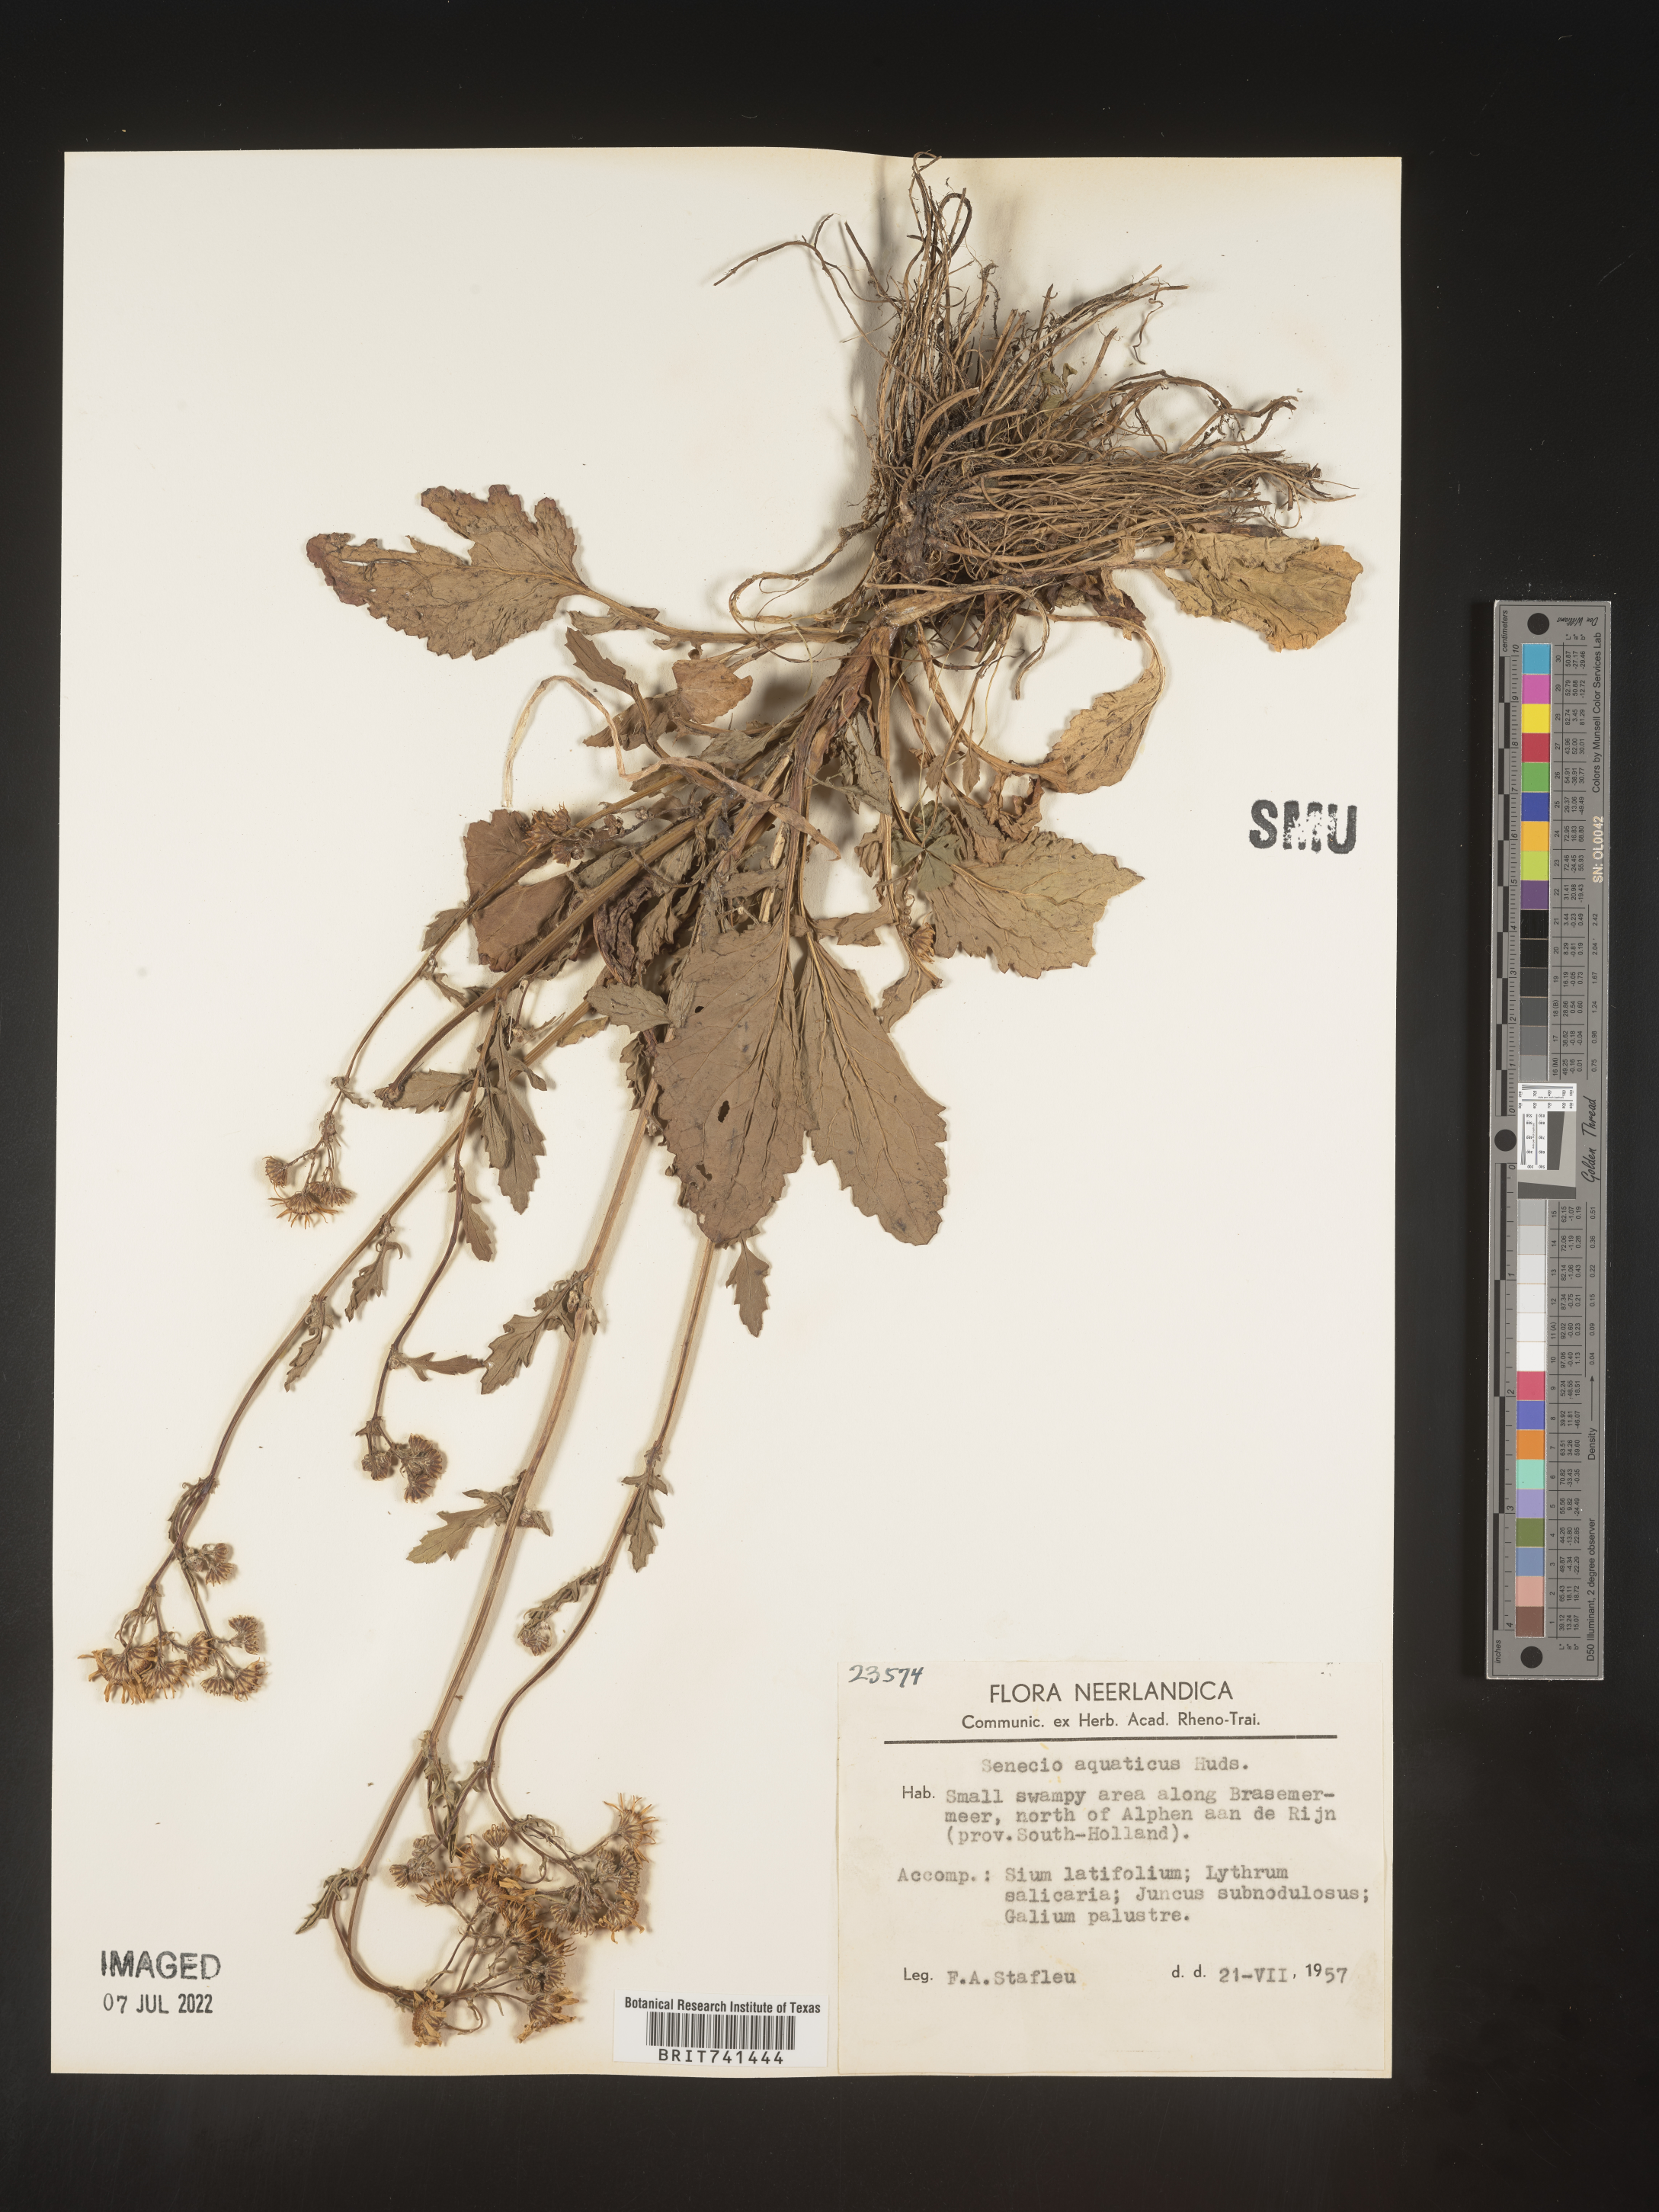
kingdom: Plantae
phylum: Tracheophyta
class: Magnoliopsida
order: Asterales
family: Asteraceae
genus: Senecio
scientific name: Senecio
